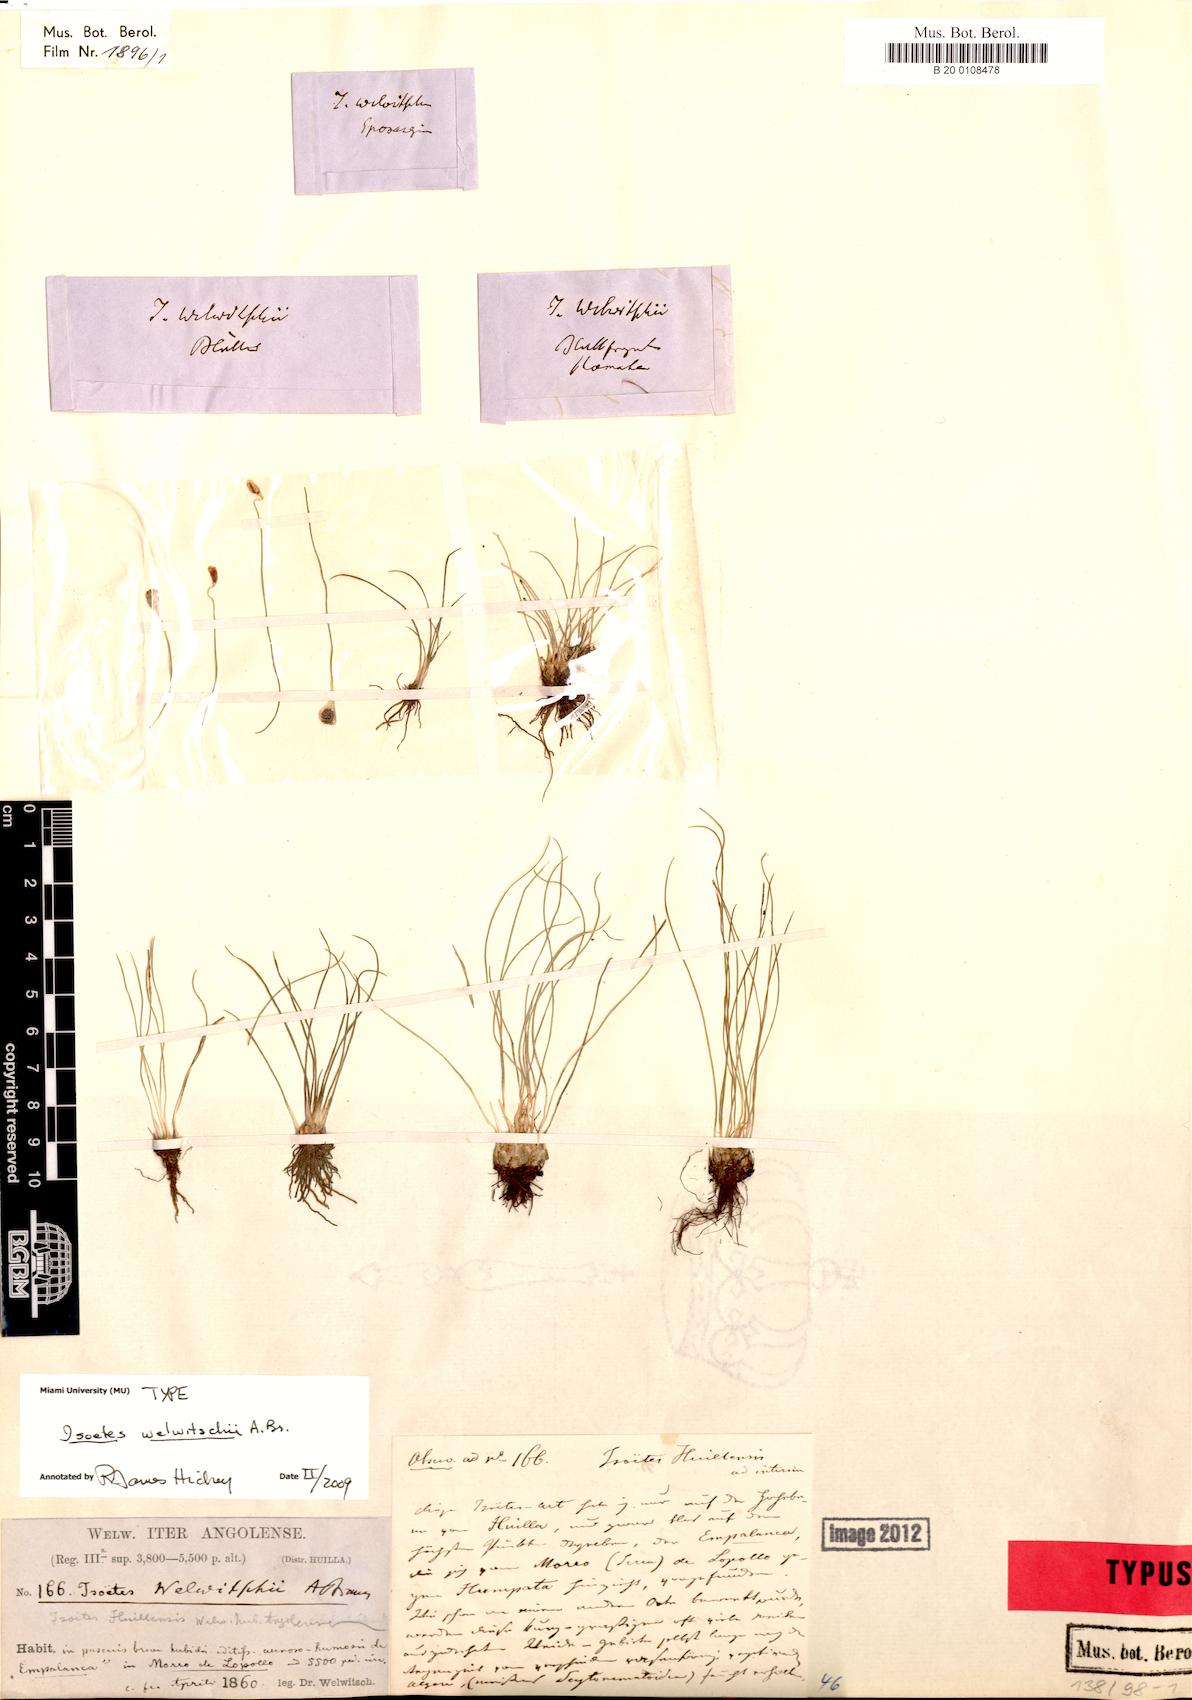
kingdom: Plantae
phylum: Tracheophyta
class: Lycopodiopsida
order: Isoetales
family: Isoetaceae
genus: Isoetes
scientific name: Isoetes welwitschii
